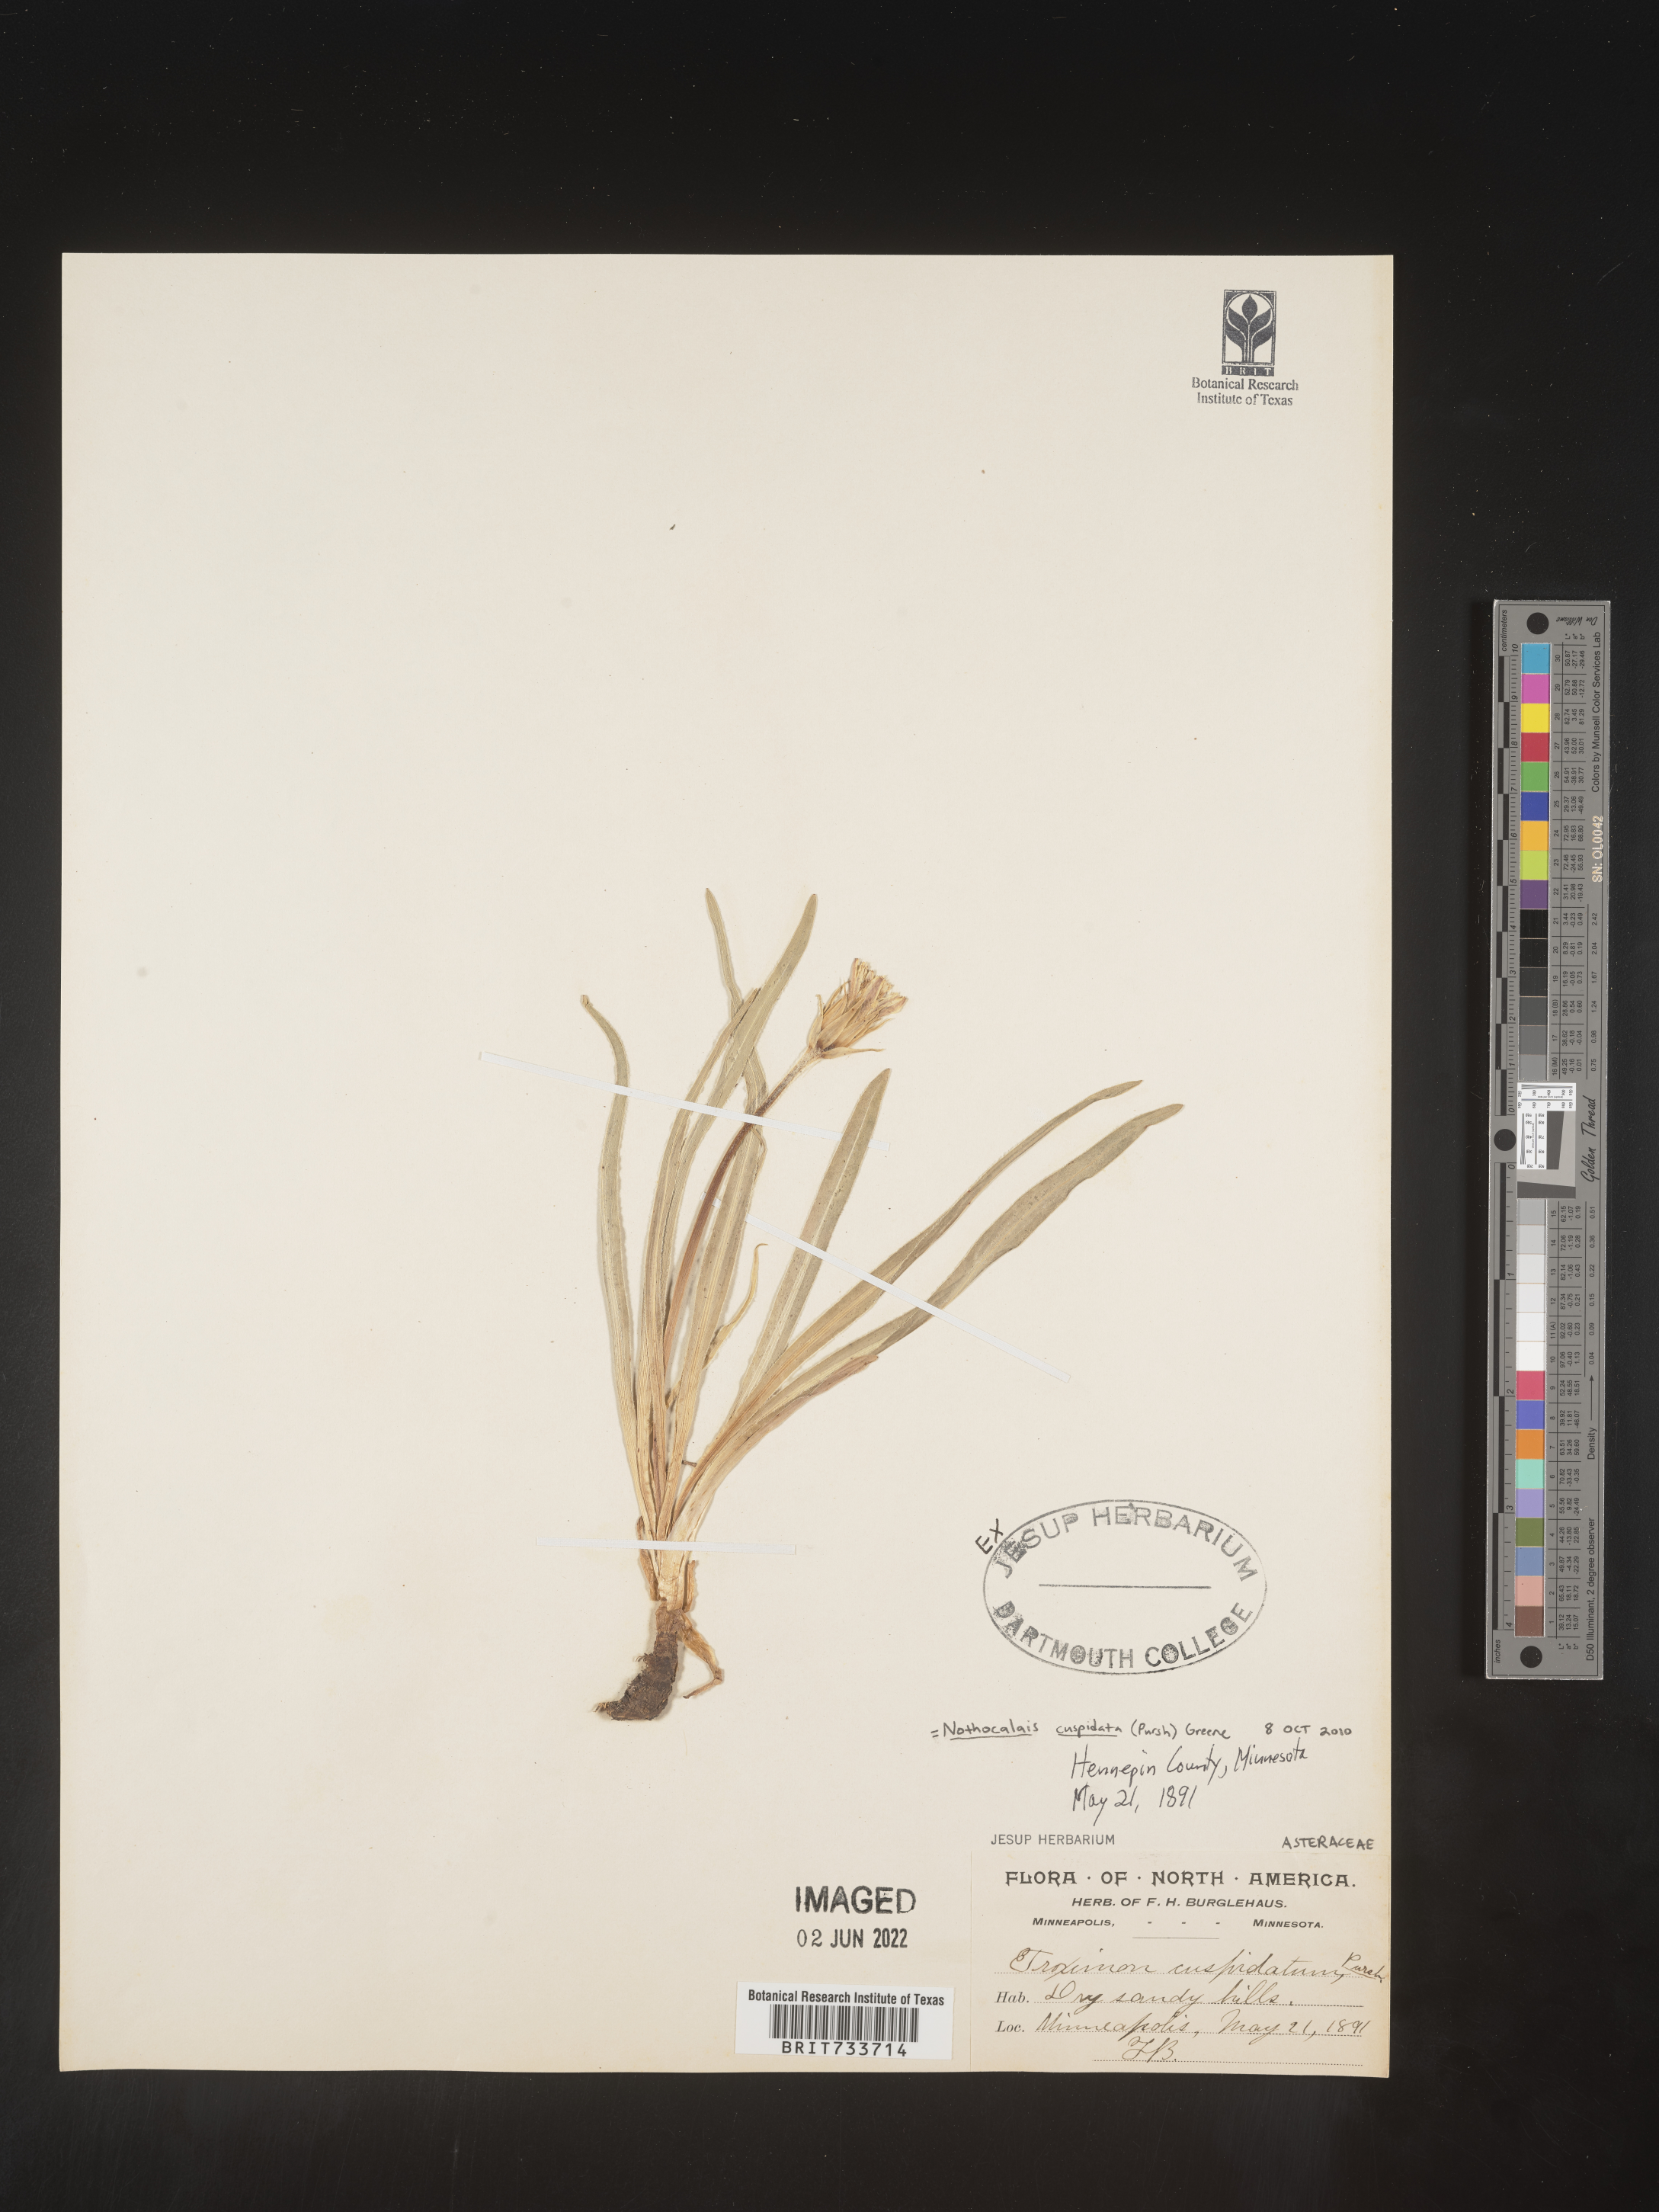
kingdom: Plantae
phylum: Tracheophyta
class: Magnoliopsida
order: Asterales
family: Asteraceae
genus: Microseris
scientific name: Microseris
